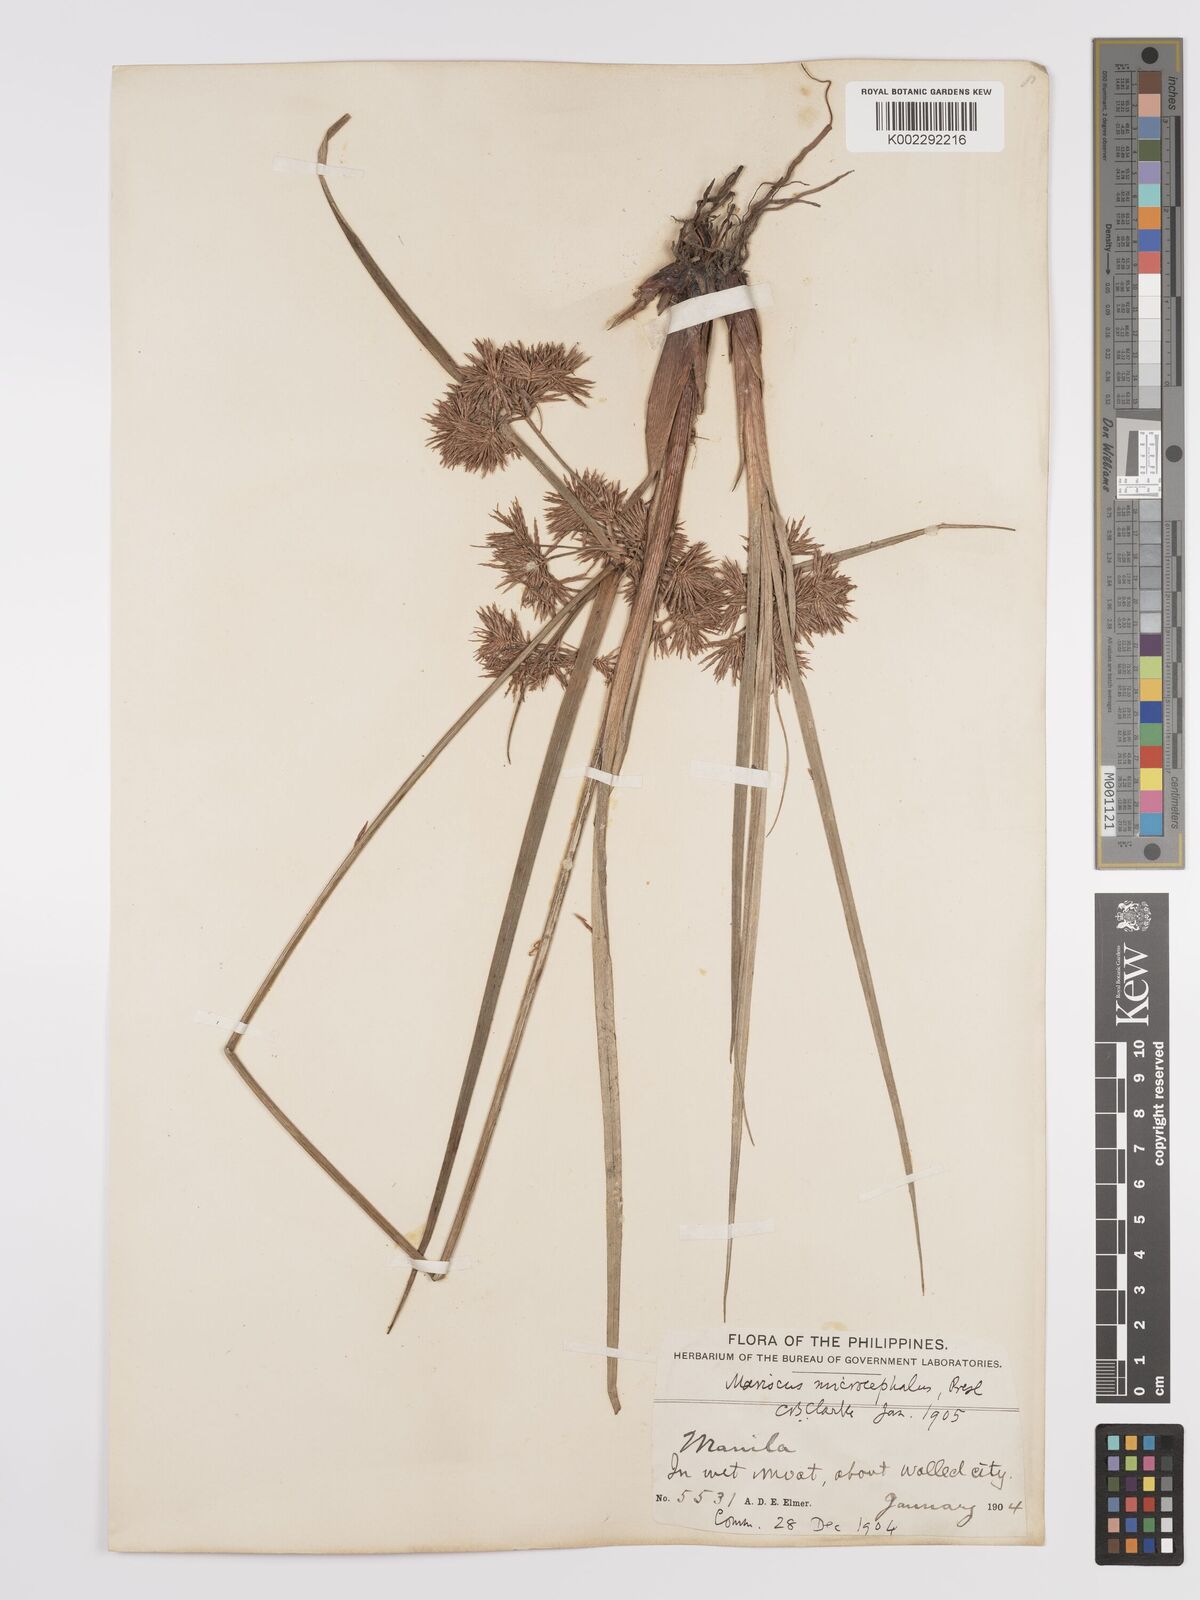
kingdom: Plantae
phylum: Tracheophyta
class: Liliopsida
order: Poales
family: Cyperaceae
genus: Cyperus
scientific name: Cyperus compactus
